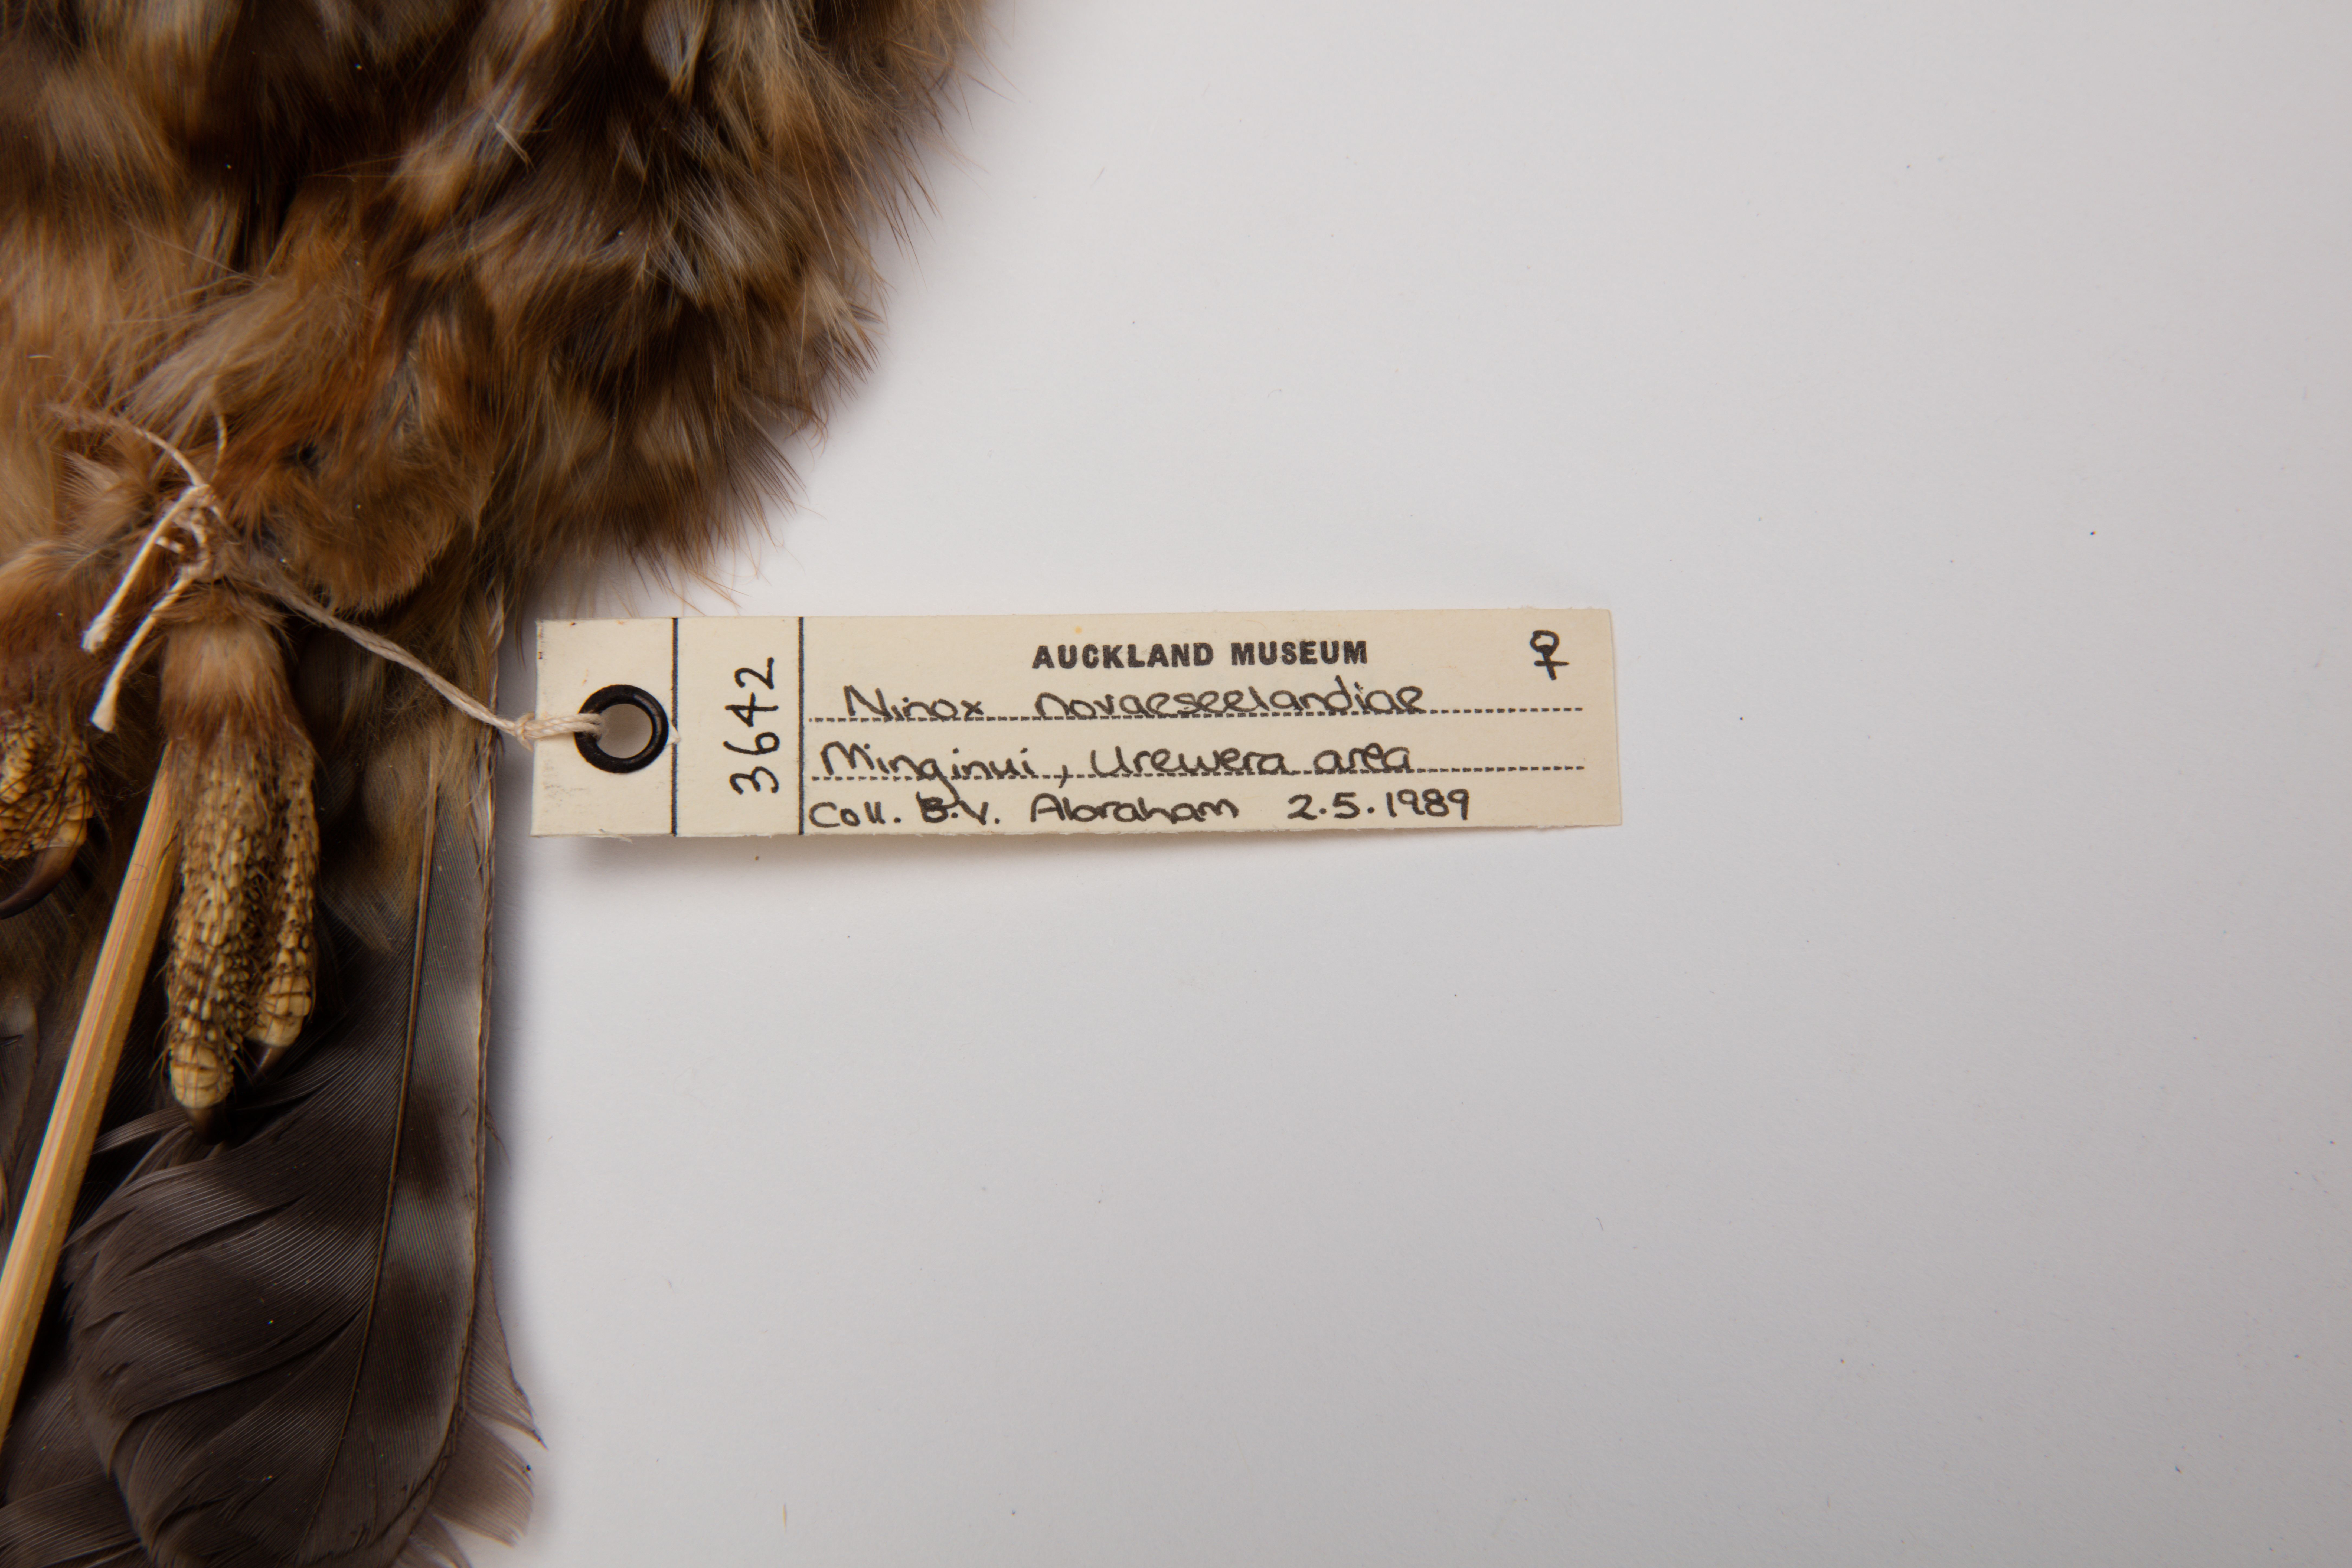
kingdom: Animalia
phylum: Chordata
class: Aves
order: Strigiformes
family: Strigidae
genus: Ninox
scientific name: Ninox novaeseelandiae
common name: Morepork
